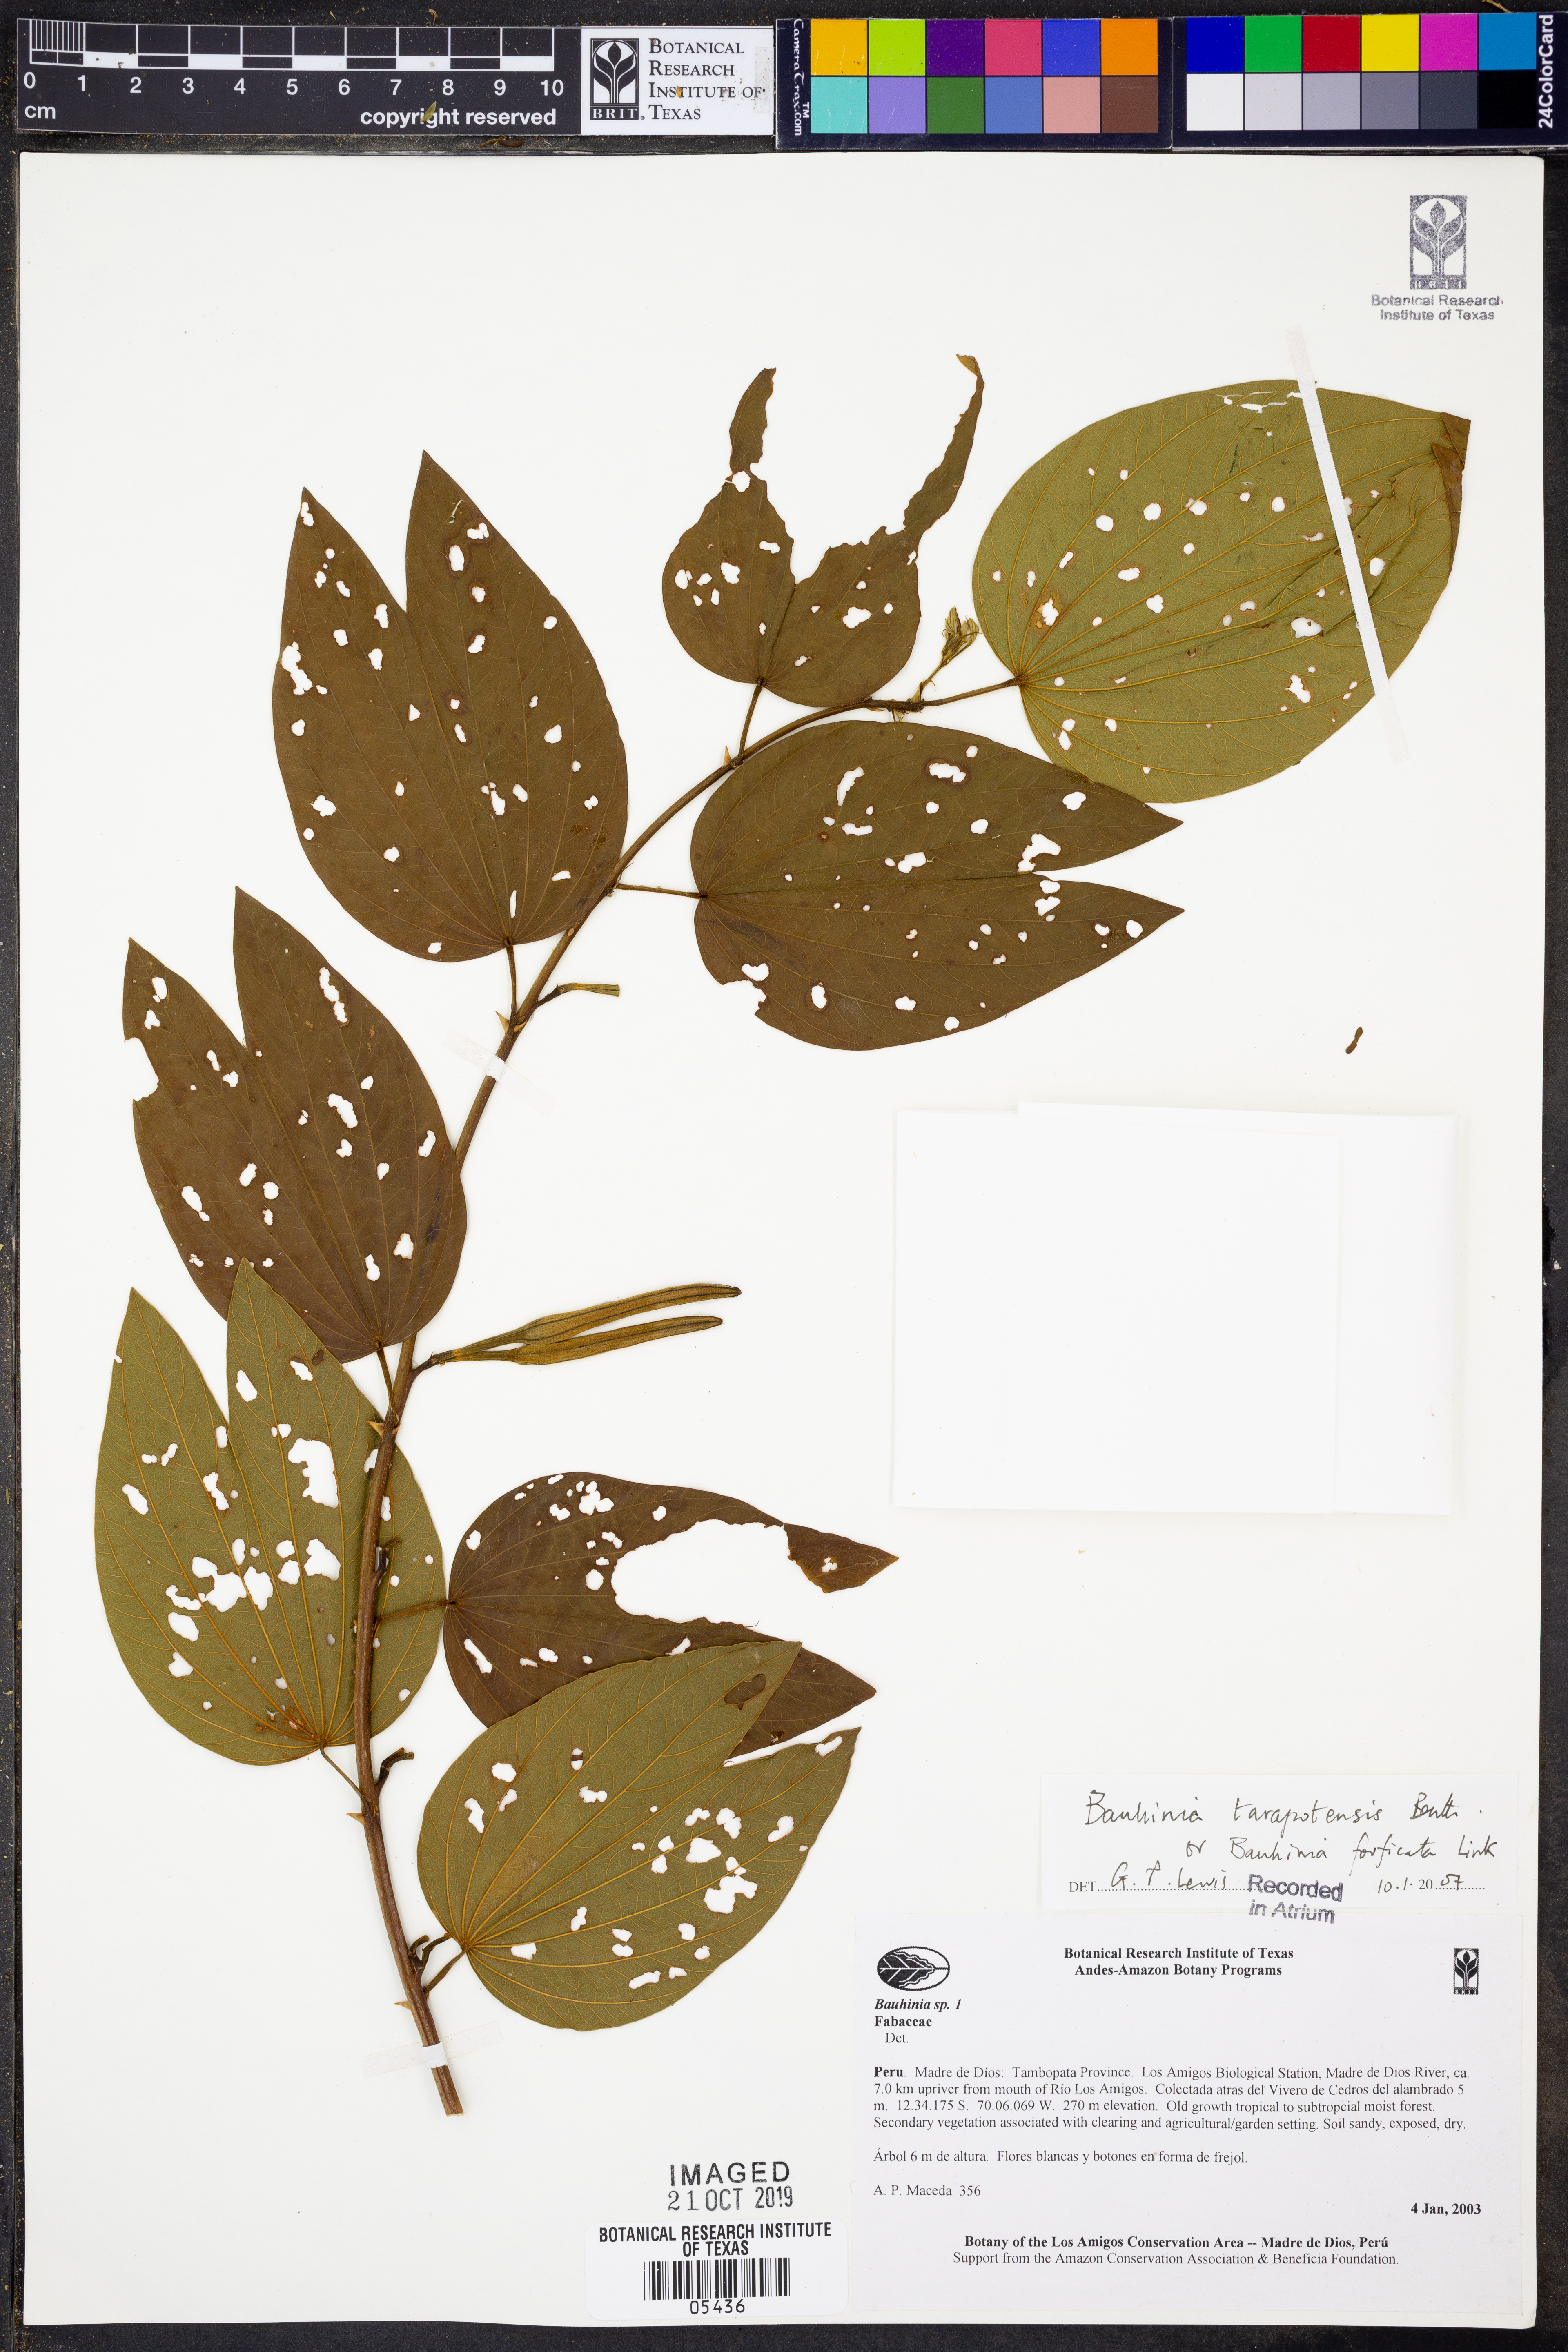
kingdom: Plantae
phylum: Tracheophyta
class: Magnoliopsida
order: Fabales
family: Fabaceae
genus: Bauhinia
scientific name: Bauhinia
